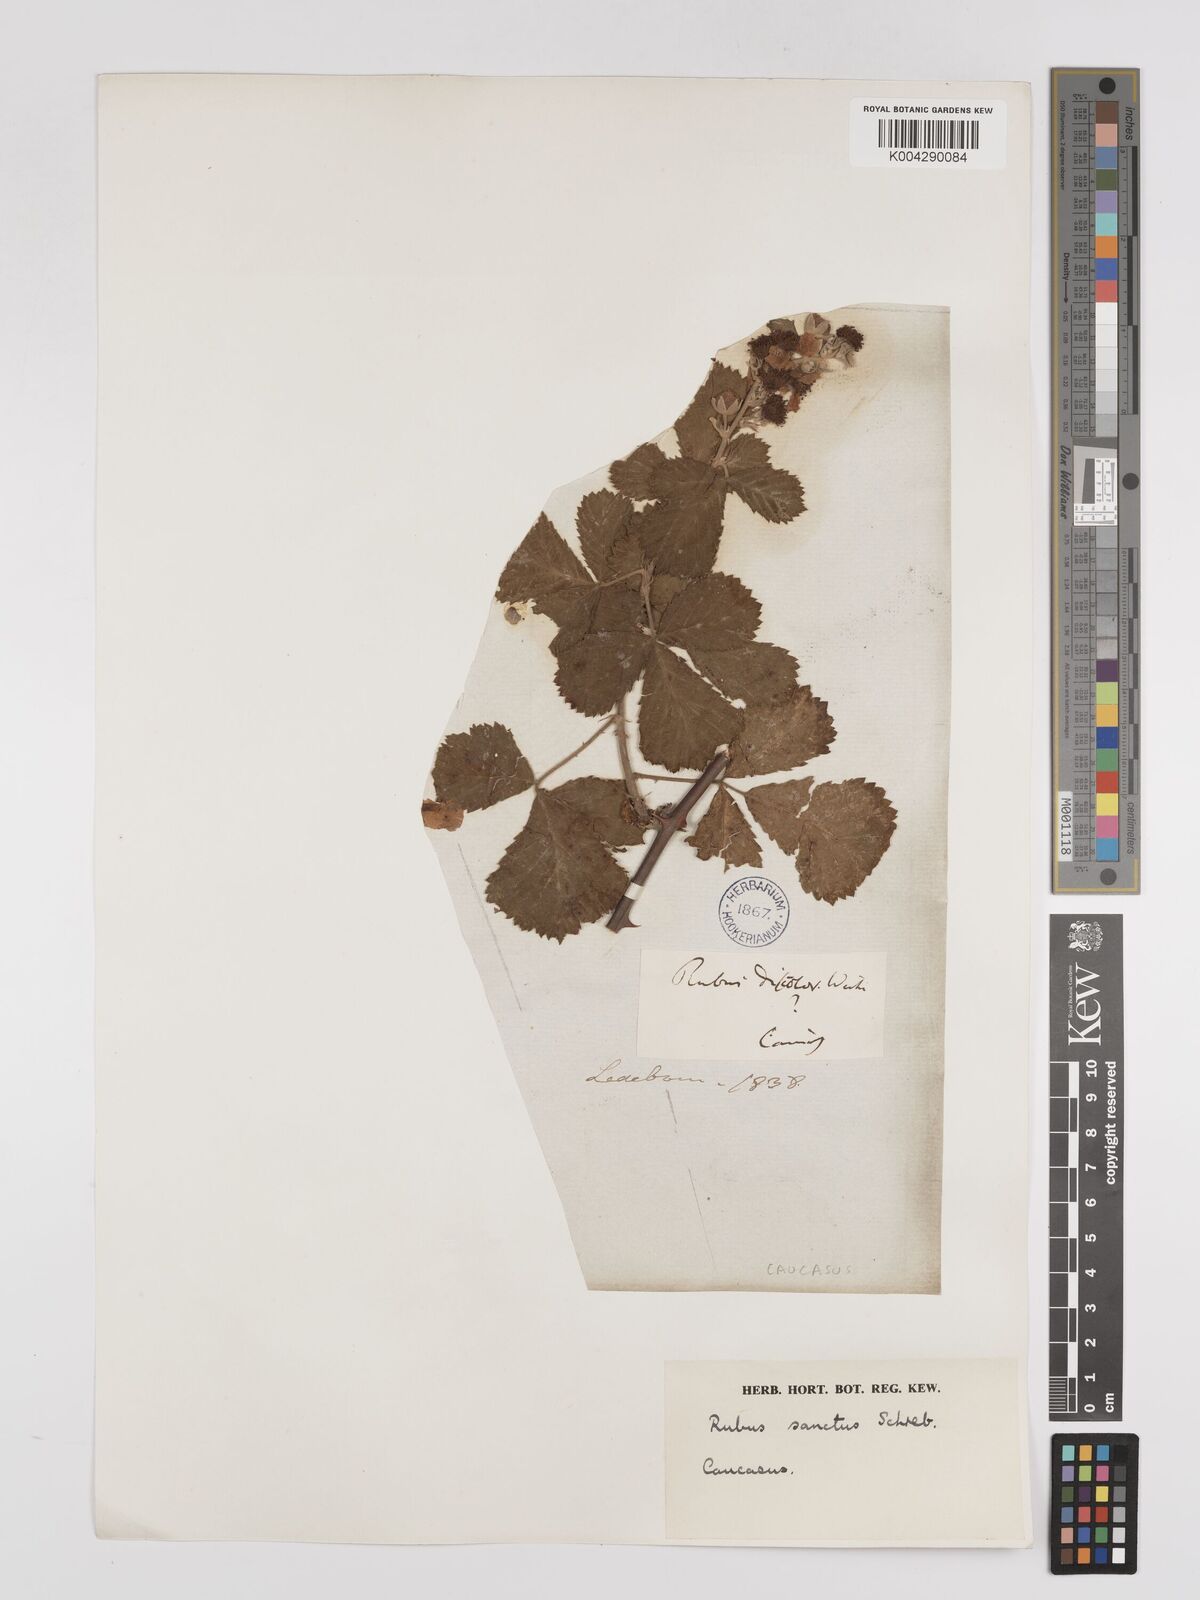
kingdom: Plantae
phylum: Tracheophyta
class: Magnoliopsida
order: Rosales
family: Rosaceae
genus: Rubus
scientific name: Rubus sanctus
